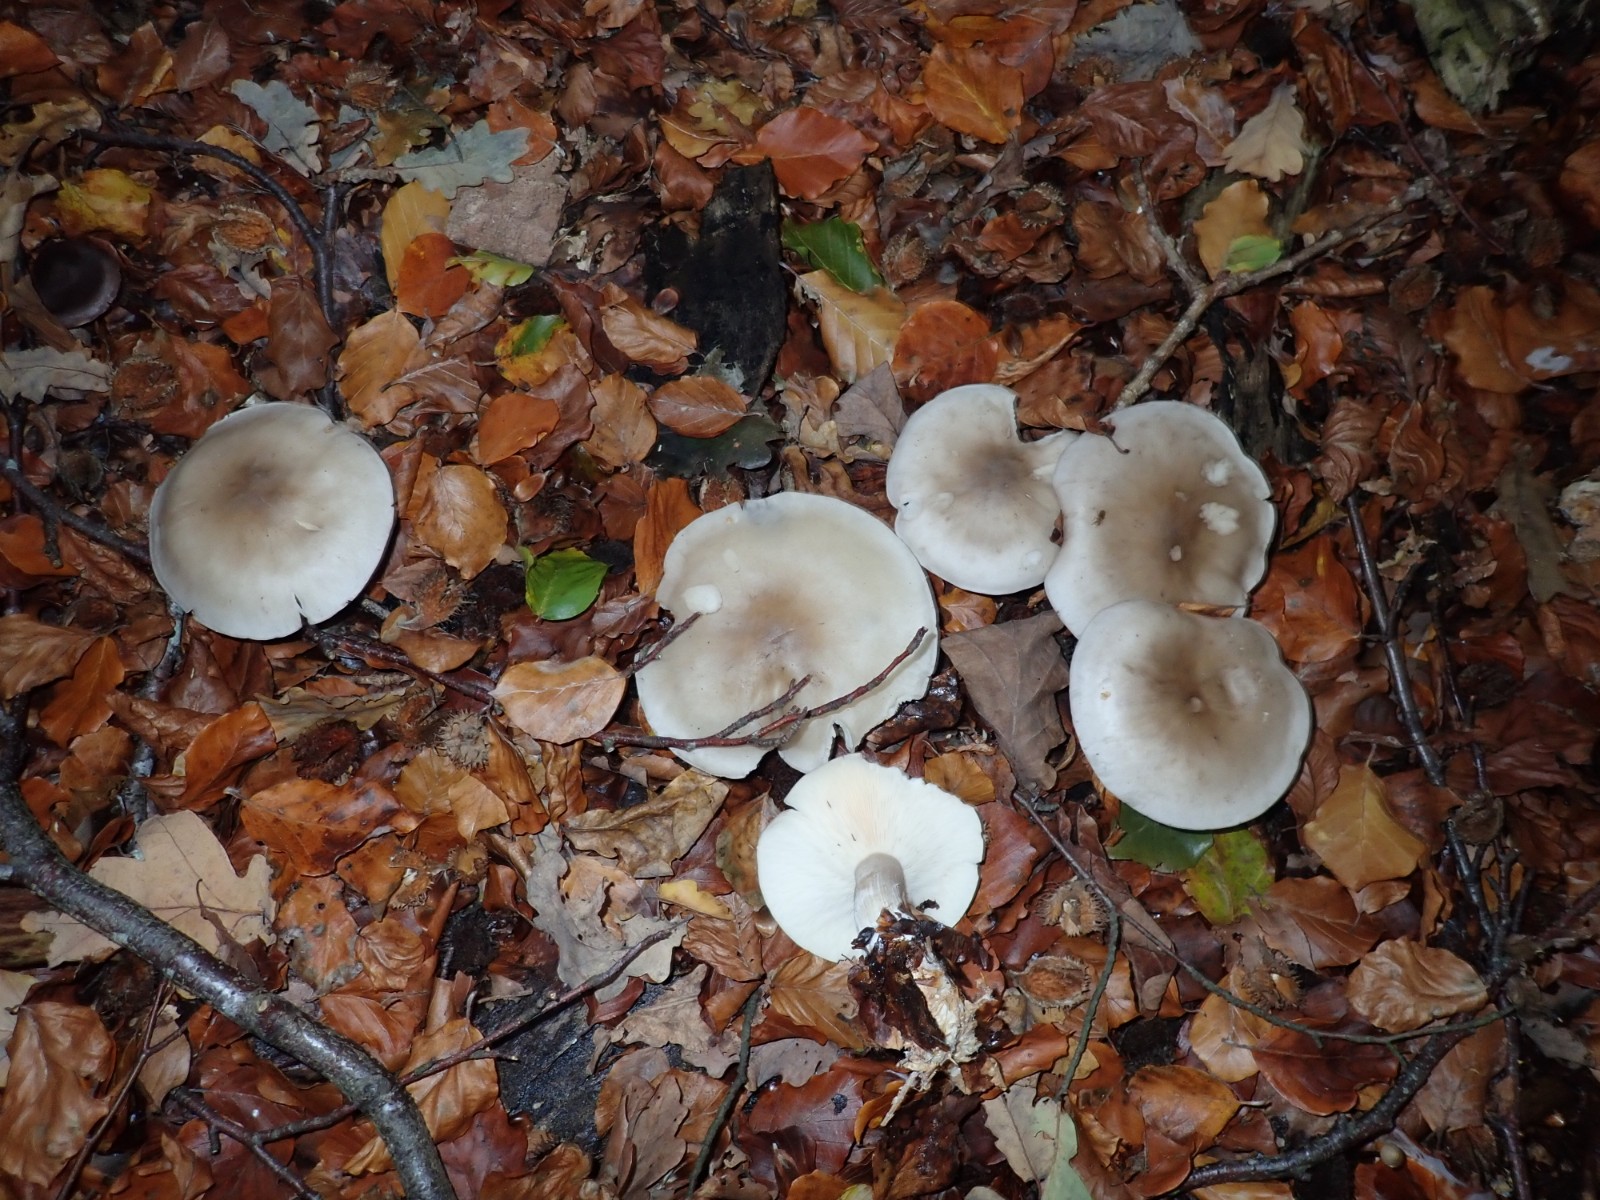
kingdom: Fungi
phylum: Basidiomycota
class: Agaricomycetes
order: Agaricales
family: Tricholomataceae
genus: Clitocybe
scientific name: Clitocybe nebularis
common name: tåge-tragthat
